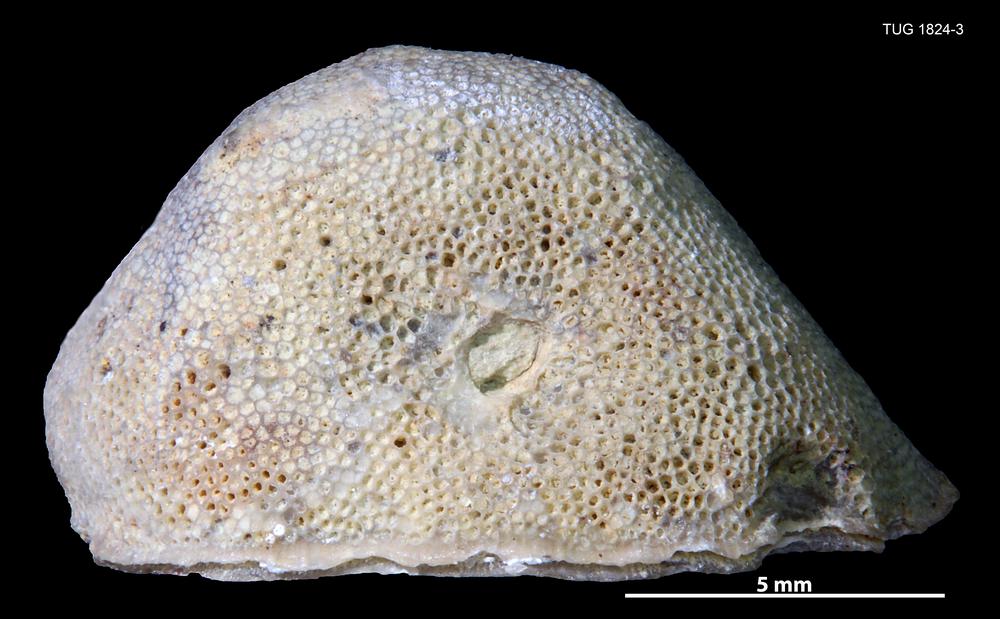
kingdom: Animalia
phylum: Bryozoa
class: Stenolaemata
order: Trepostomatida
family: Diplotrypidae
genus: Diplotrypa
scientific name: Diplotrypa
